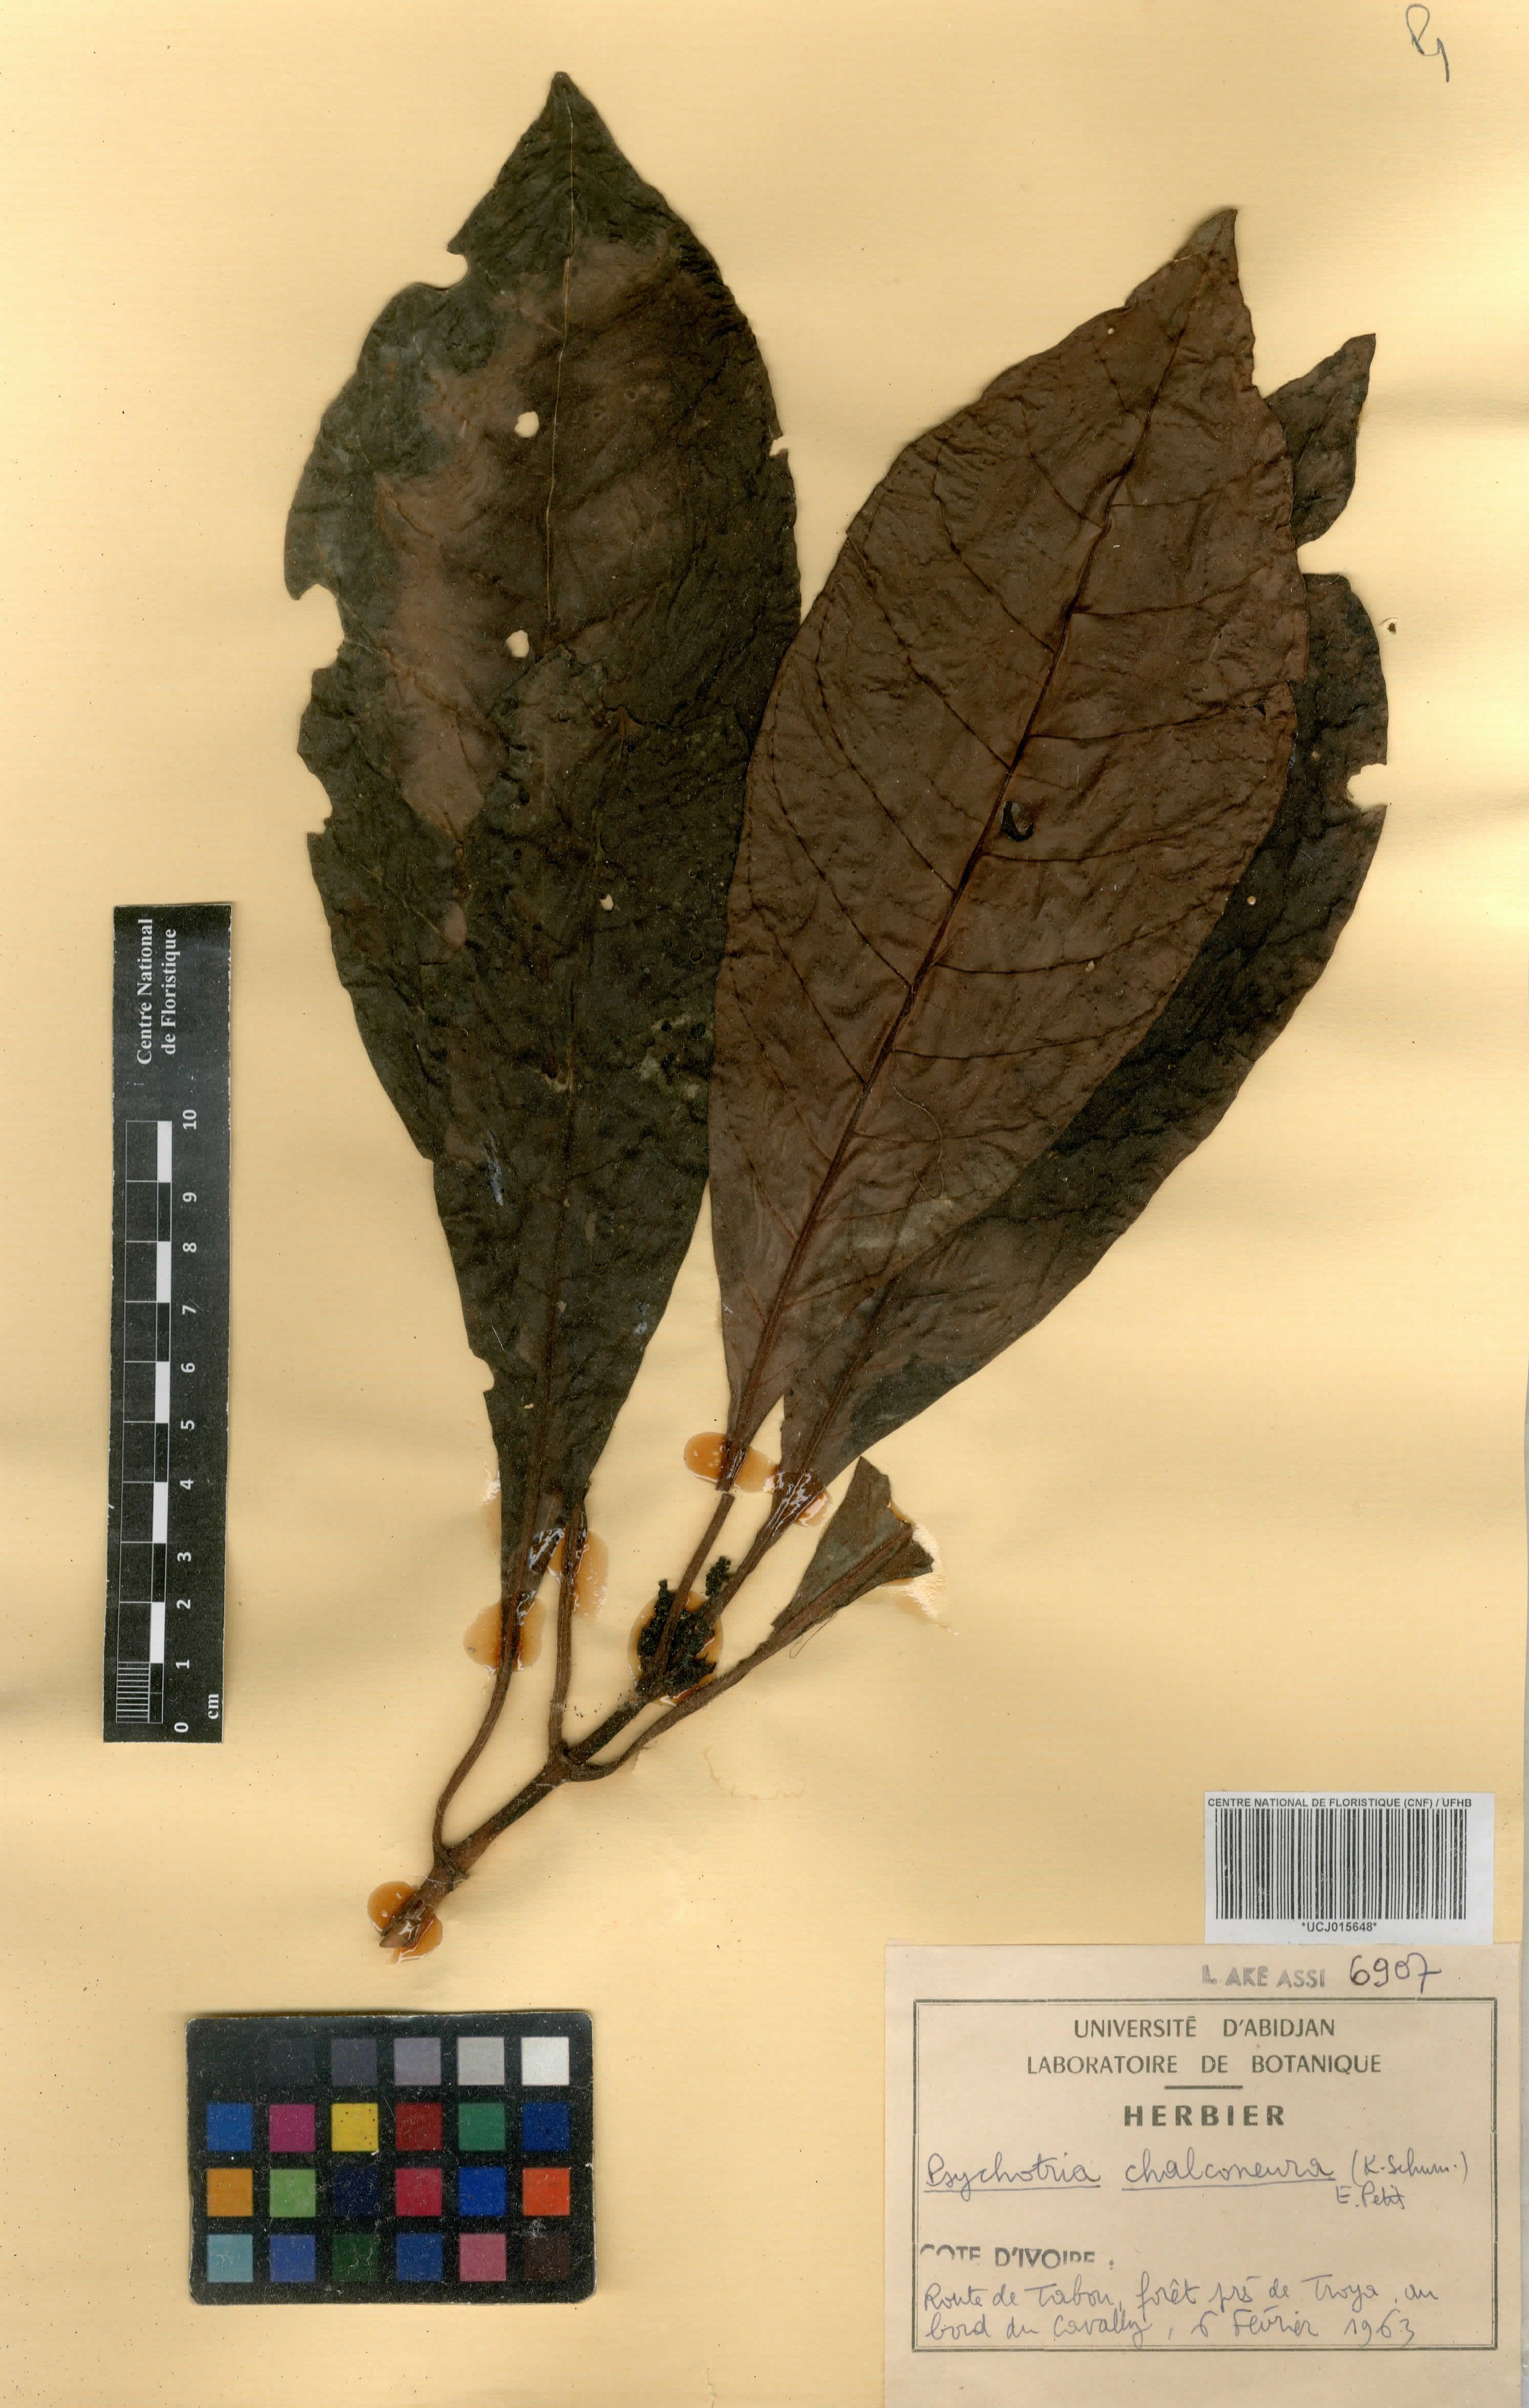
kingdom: Plantae
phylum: Tracheophyta
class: Magnoliopsida
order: Gentianales
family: Rubiaceae
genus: Psychotria
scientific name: Psychotria chalconeura
